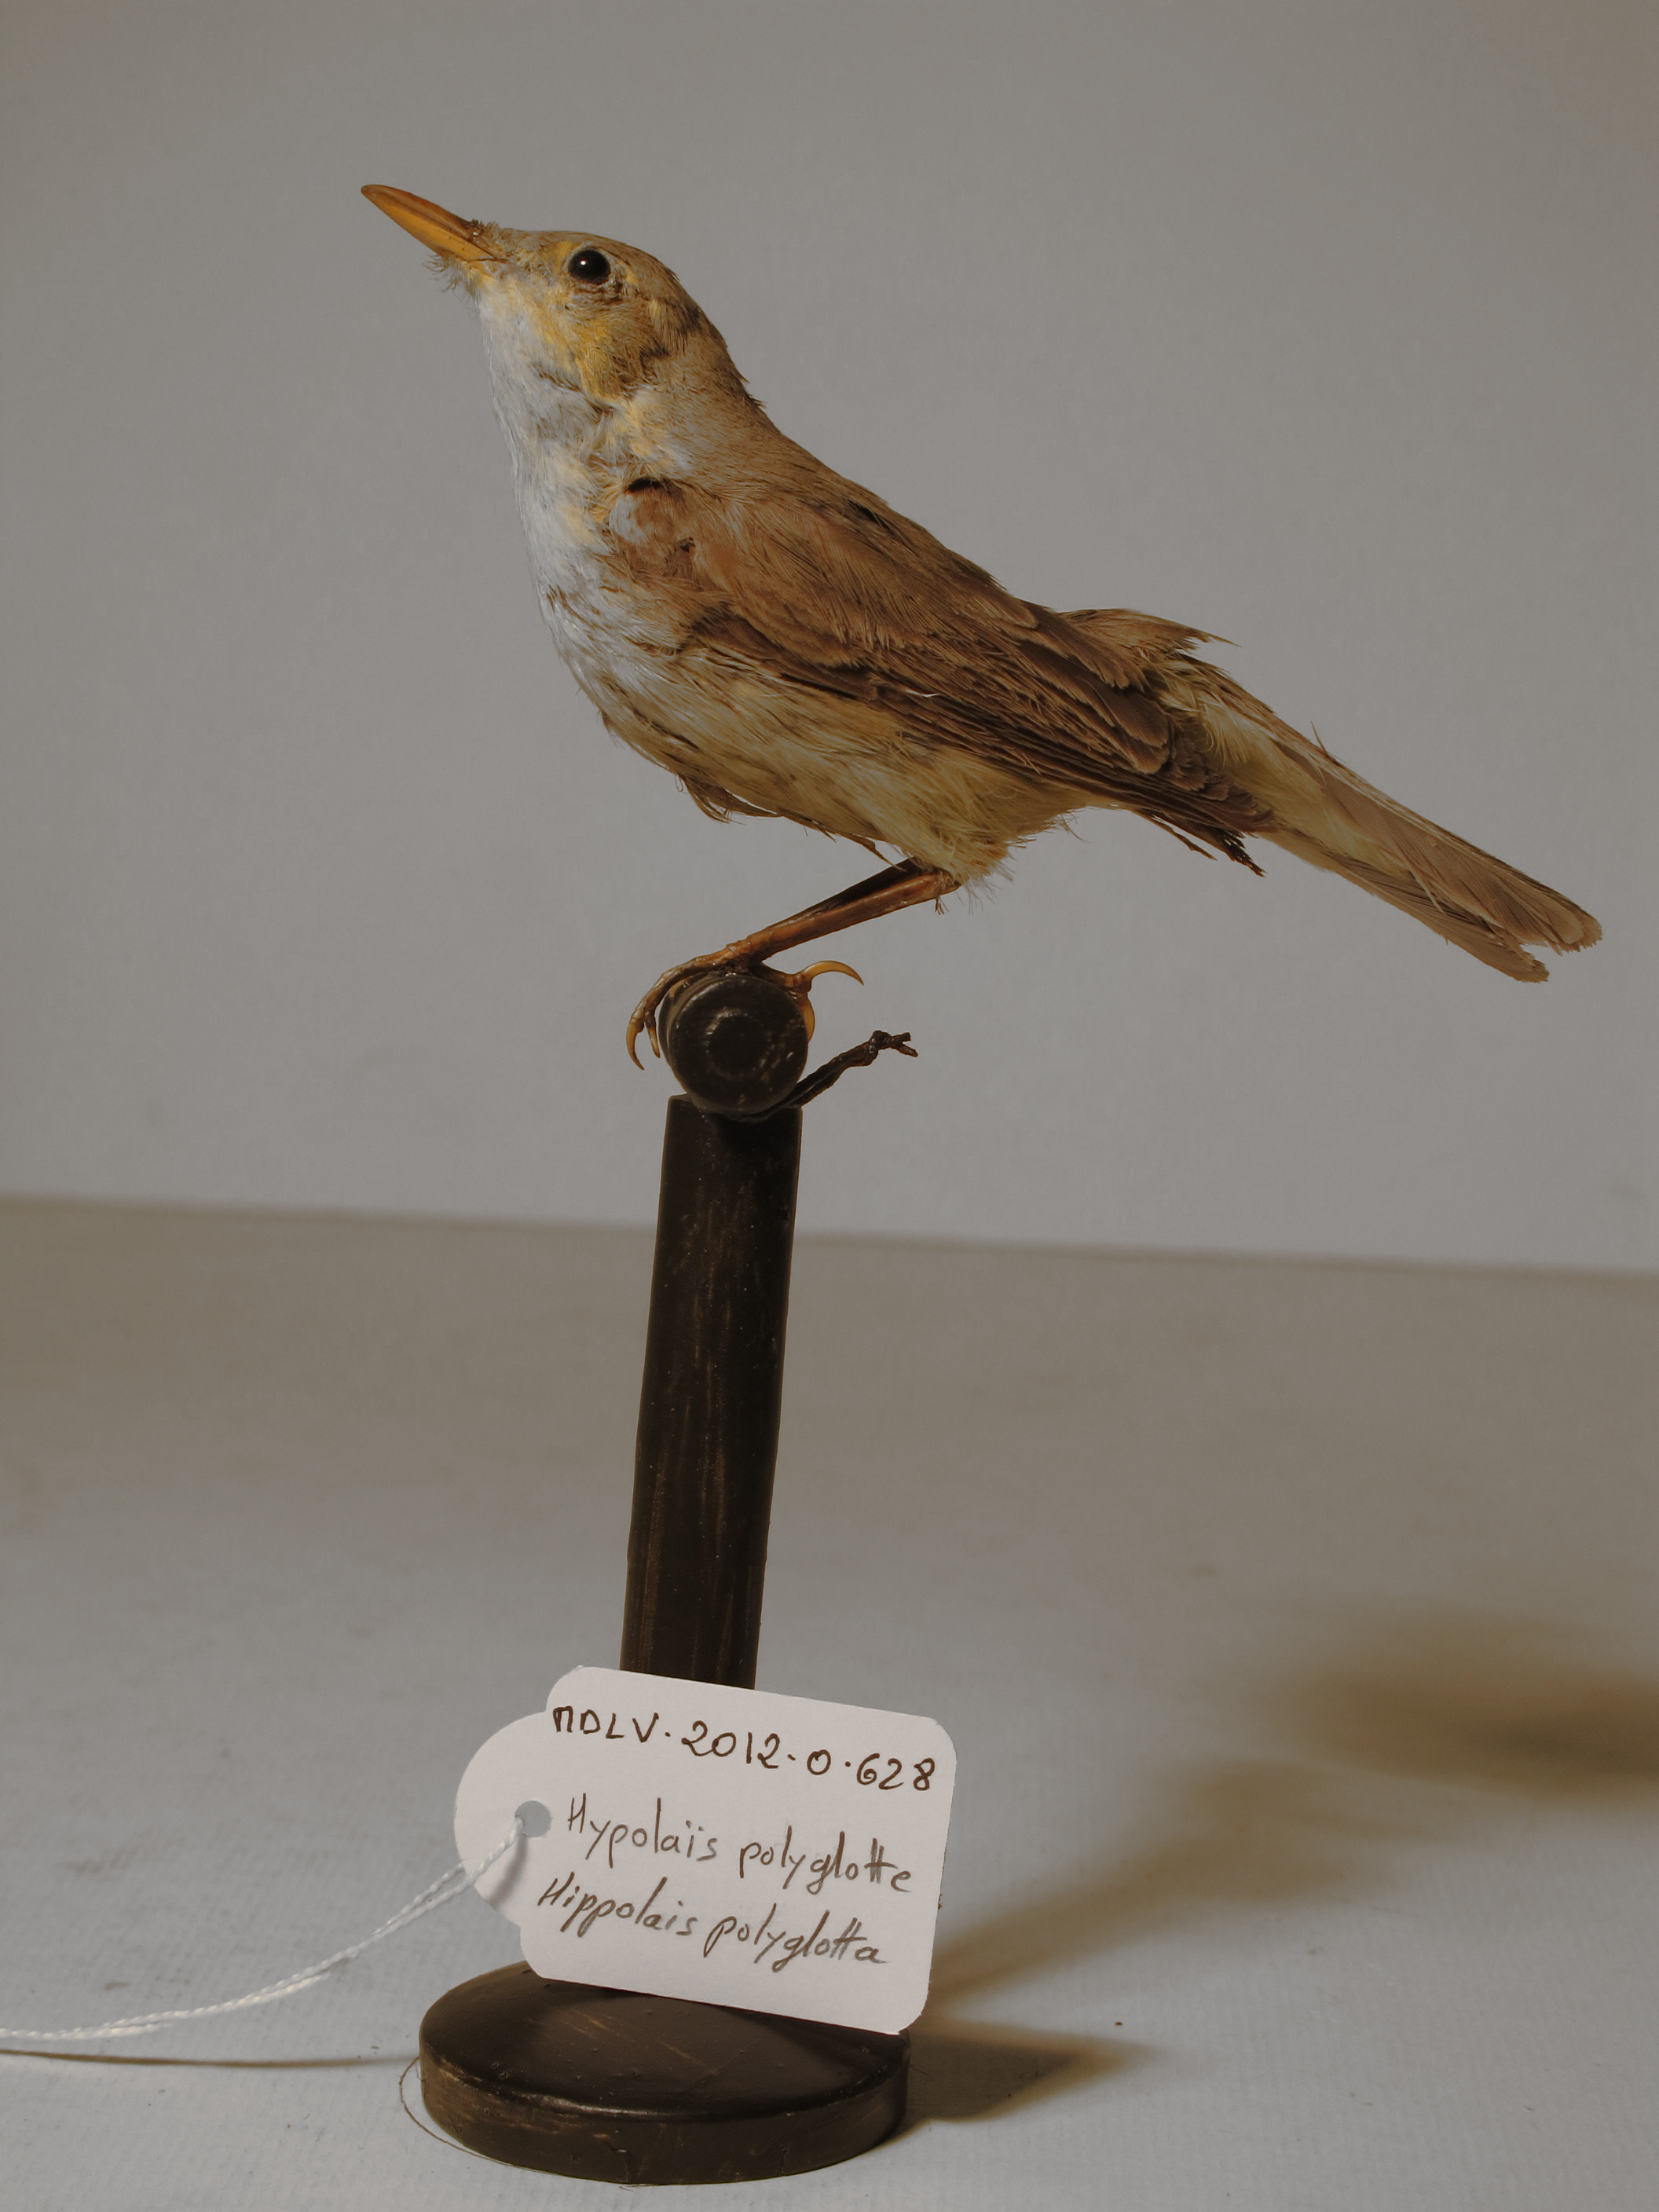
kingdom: Animalia
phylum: Chordata
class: Aves
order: Passeriformes
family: Acrocephalidae
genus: Hippolais
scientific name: Hippolais polyglotta
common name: Melodious Warbler
